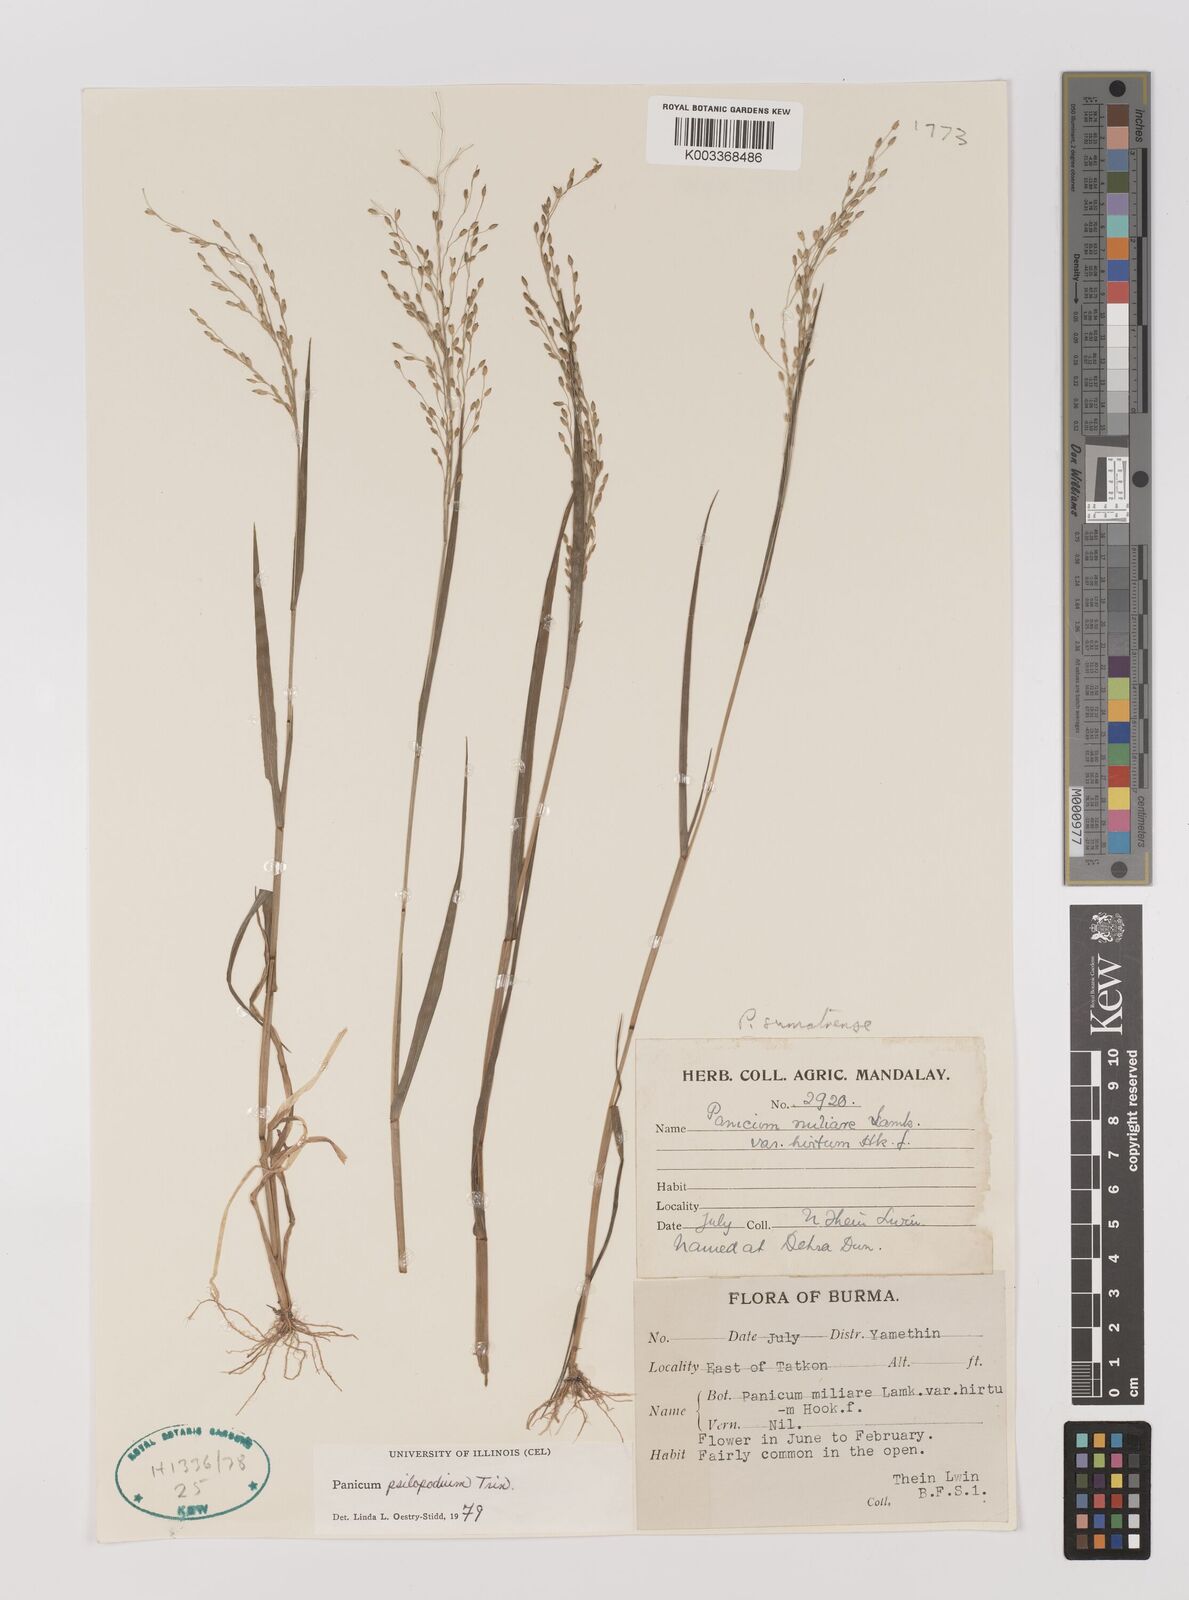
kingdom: Plantae
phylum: Tracheophyta
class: Liliopsida
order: Poales
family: Poaceae
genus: Panicum
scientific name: Panicum sumatrense
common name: Little millet
